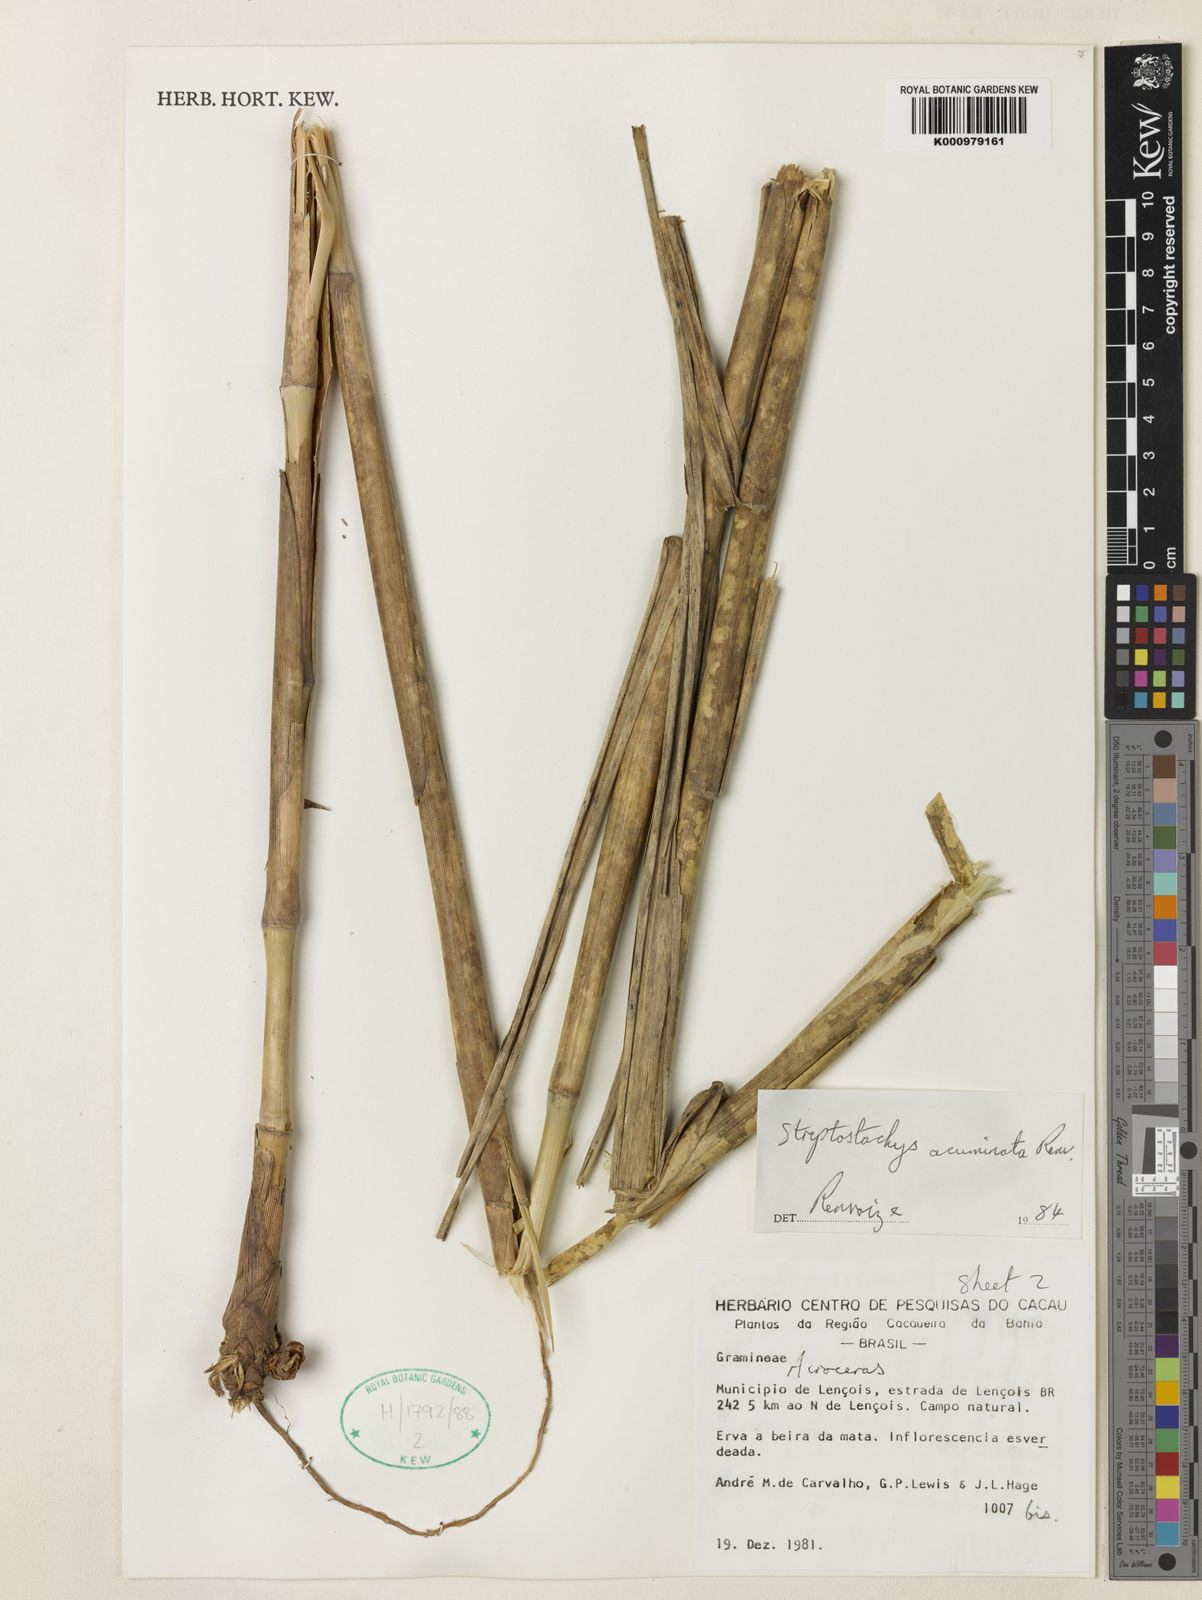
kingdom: Plantae
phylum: Tracheophyta
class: Liliopsida
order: Poales
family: Poaceae
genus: Rupichloa
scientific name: Rupichloa acuminata
